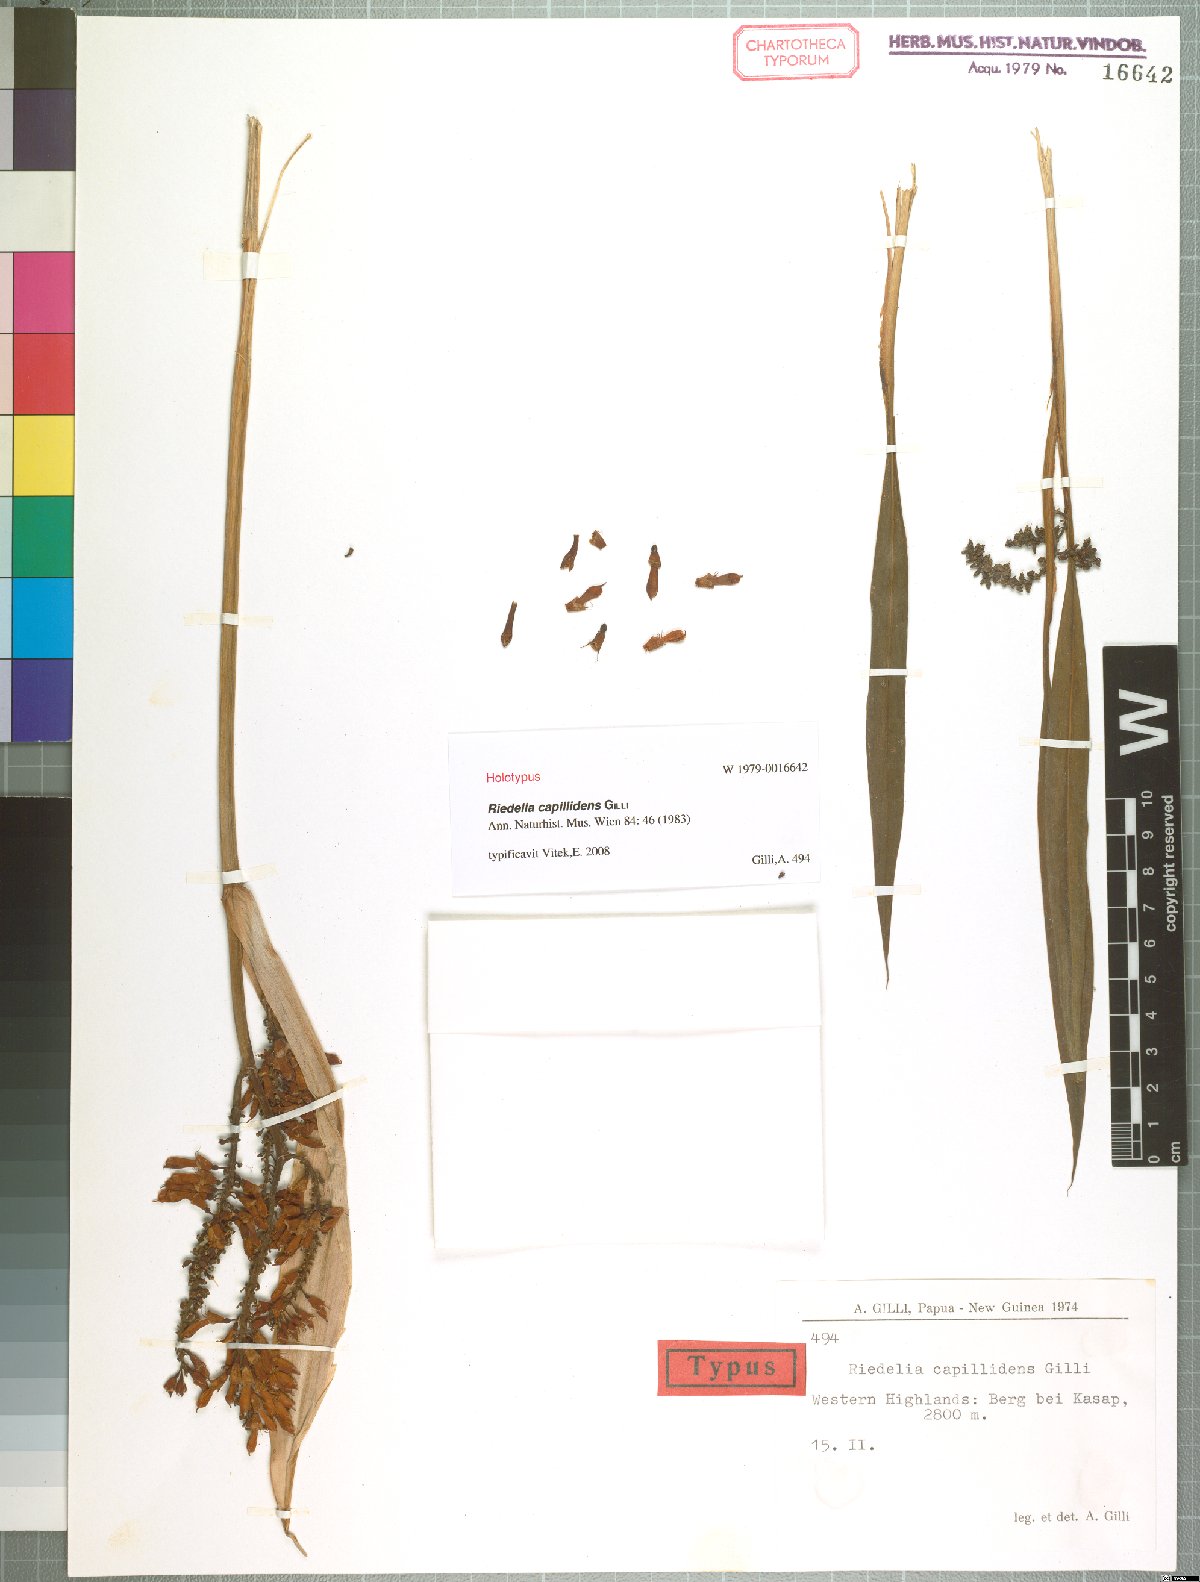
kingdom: Plantae
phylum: Tracheophyta
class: Liliopsida
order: Zingiberales
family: Zingiberaceae
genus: Riedelia
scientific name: Riedelia capillidens
